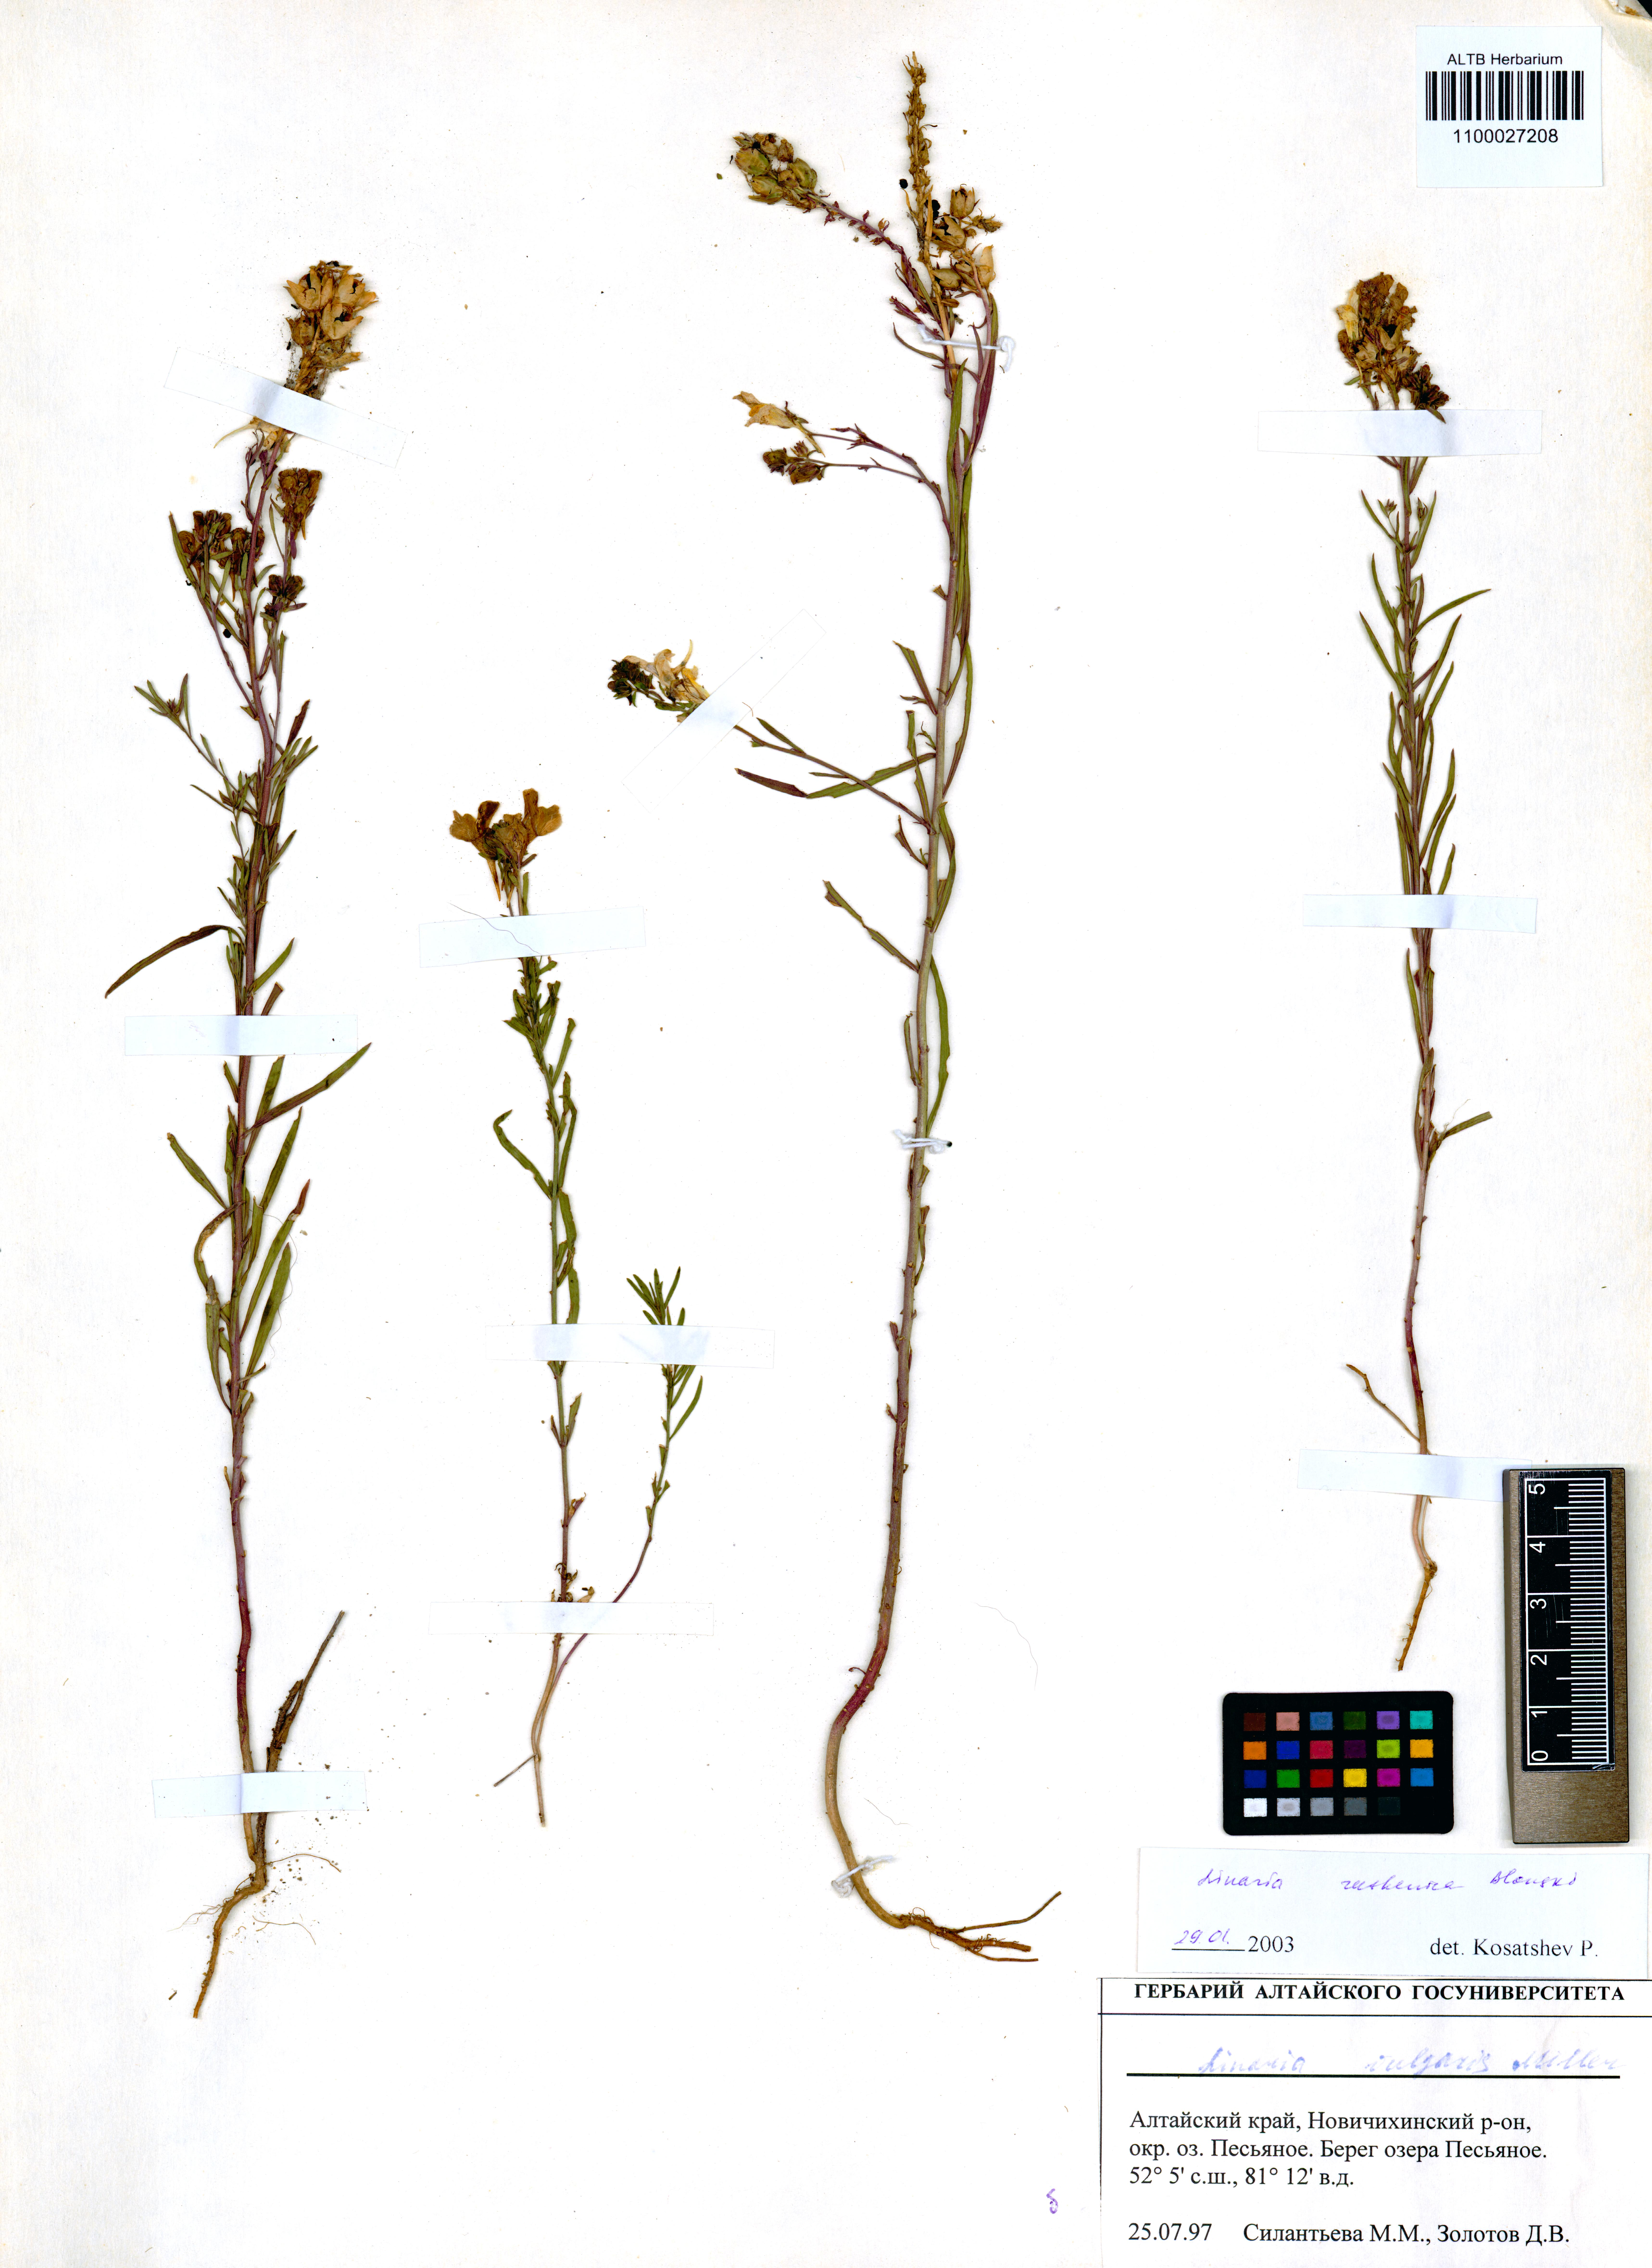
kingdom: Plantae
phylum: Tracheophyta
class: Magnoliopsida
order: Lamiales
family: Plantaginaceae
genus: Linaria
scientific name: Linaria biebersteinii
